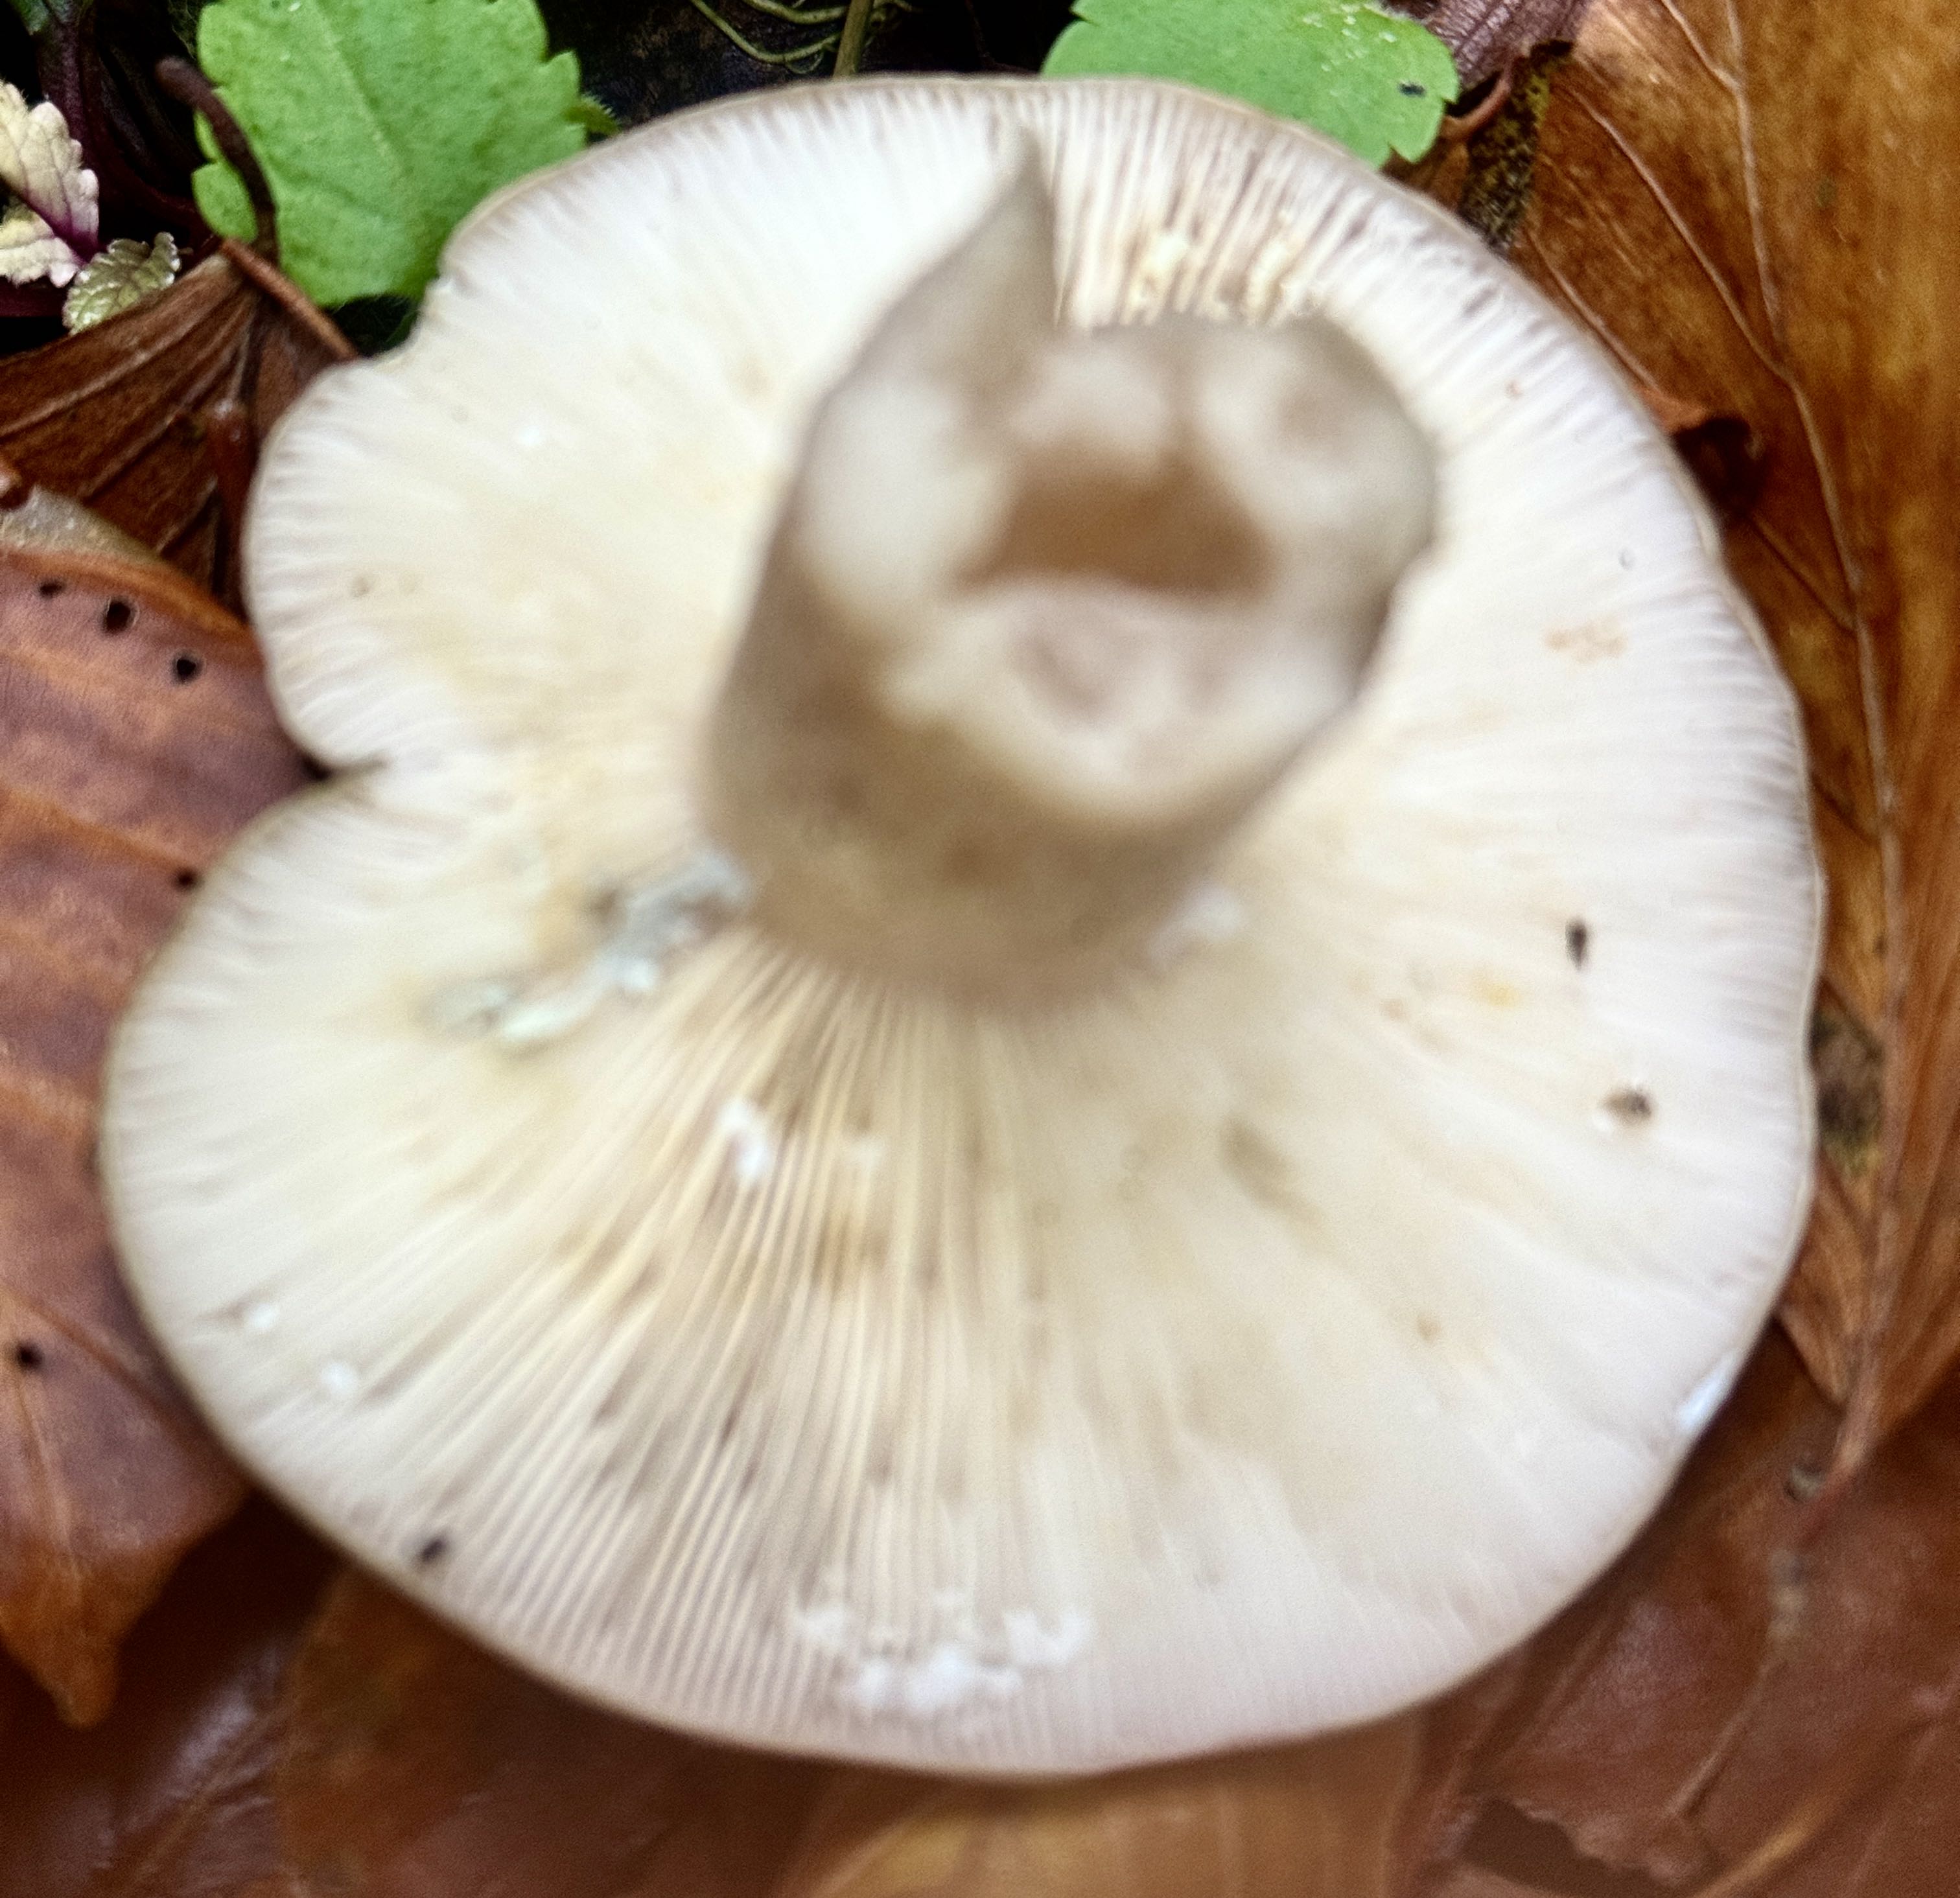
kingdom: Fungi
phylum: Basidiomycota
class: Agaricomycetes
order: Russulales
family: Russulaceae
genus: Lactarius
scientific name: Lactarius blennius
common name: dråbeplettet mælkehat
